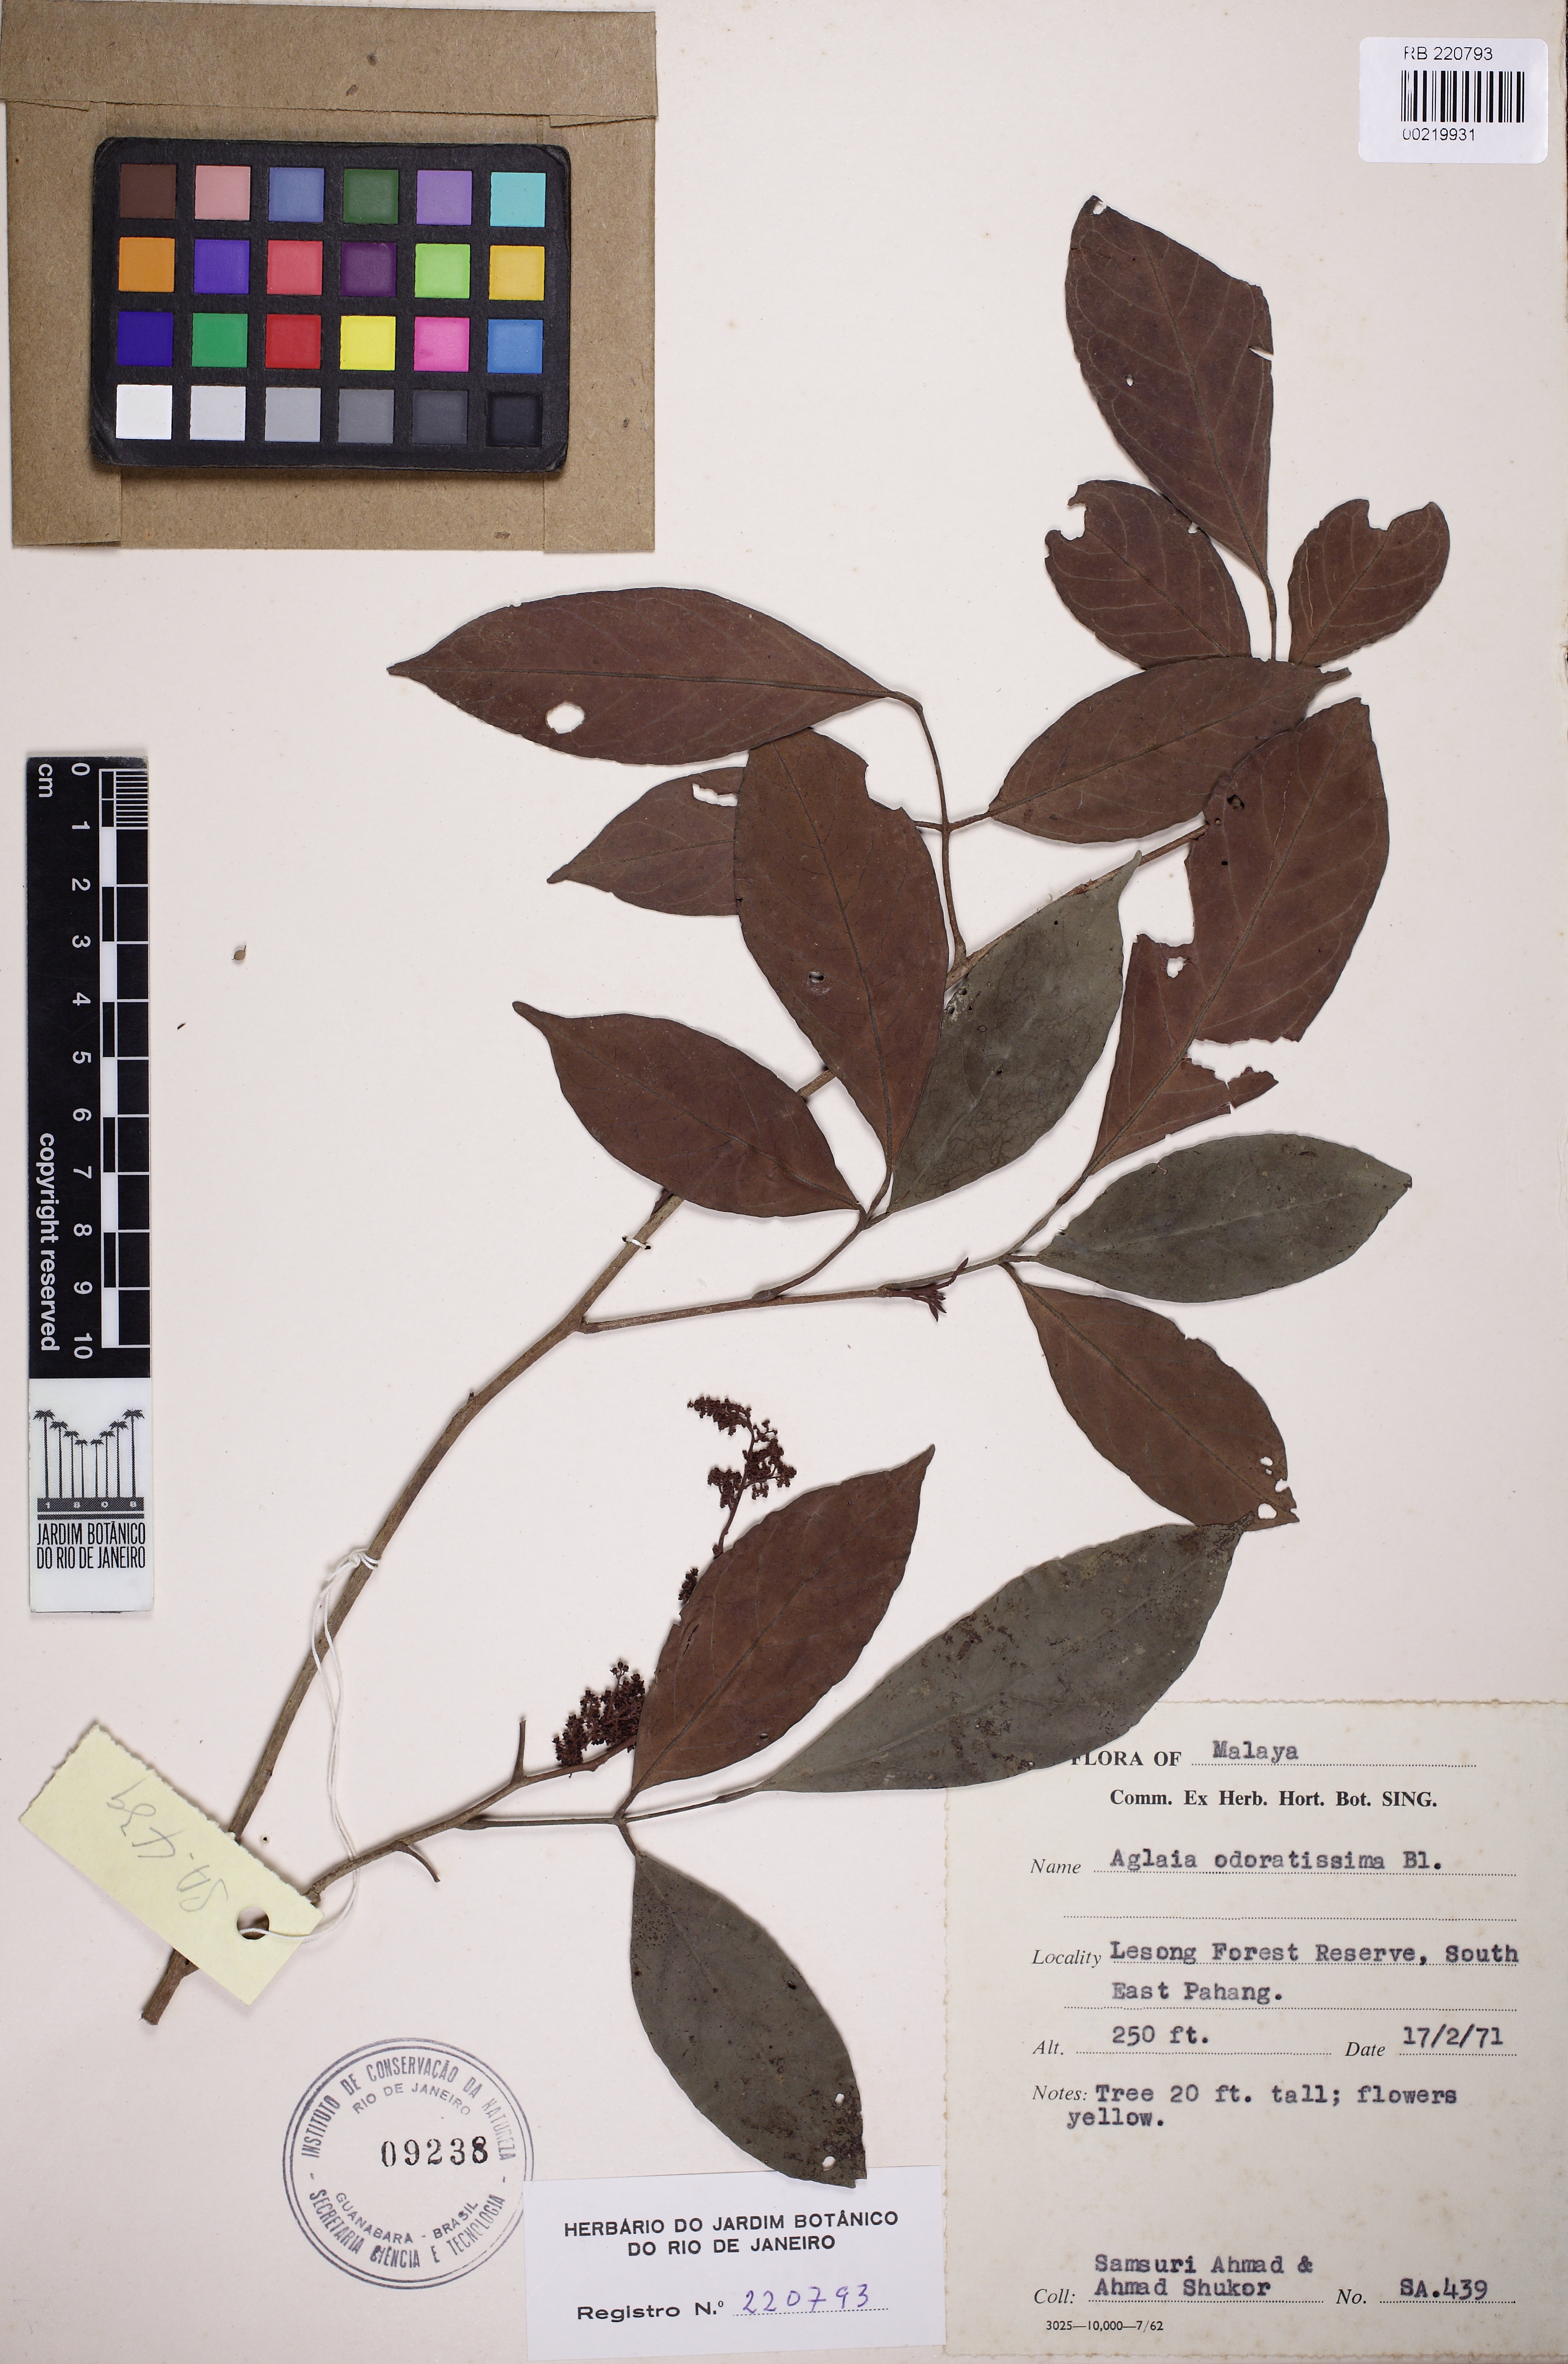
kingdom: Plantae
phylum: Tracheophyta
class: Magnoliopsida
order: Sapindales
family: Meliaceae
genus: Aglaia
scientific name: Aglaia odoratissima
